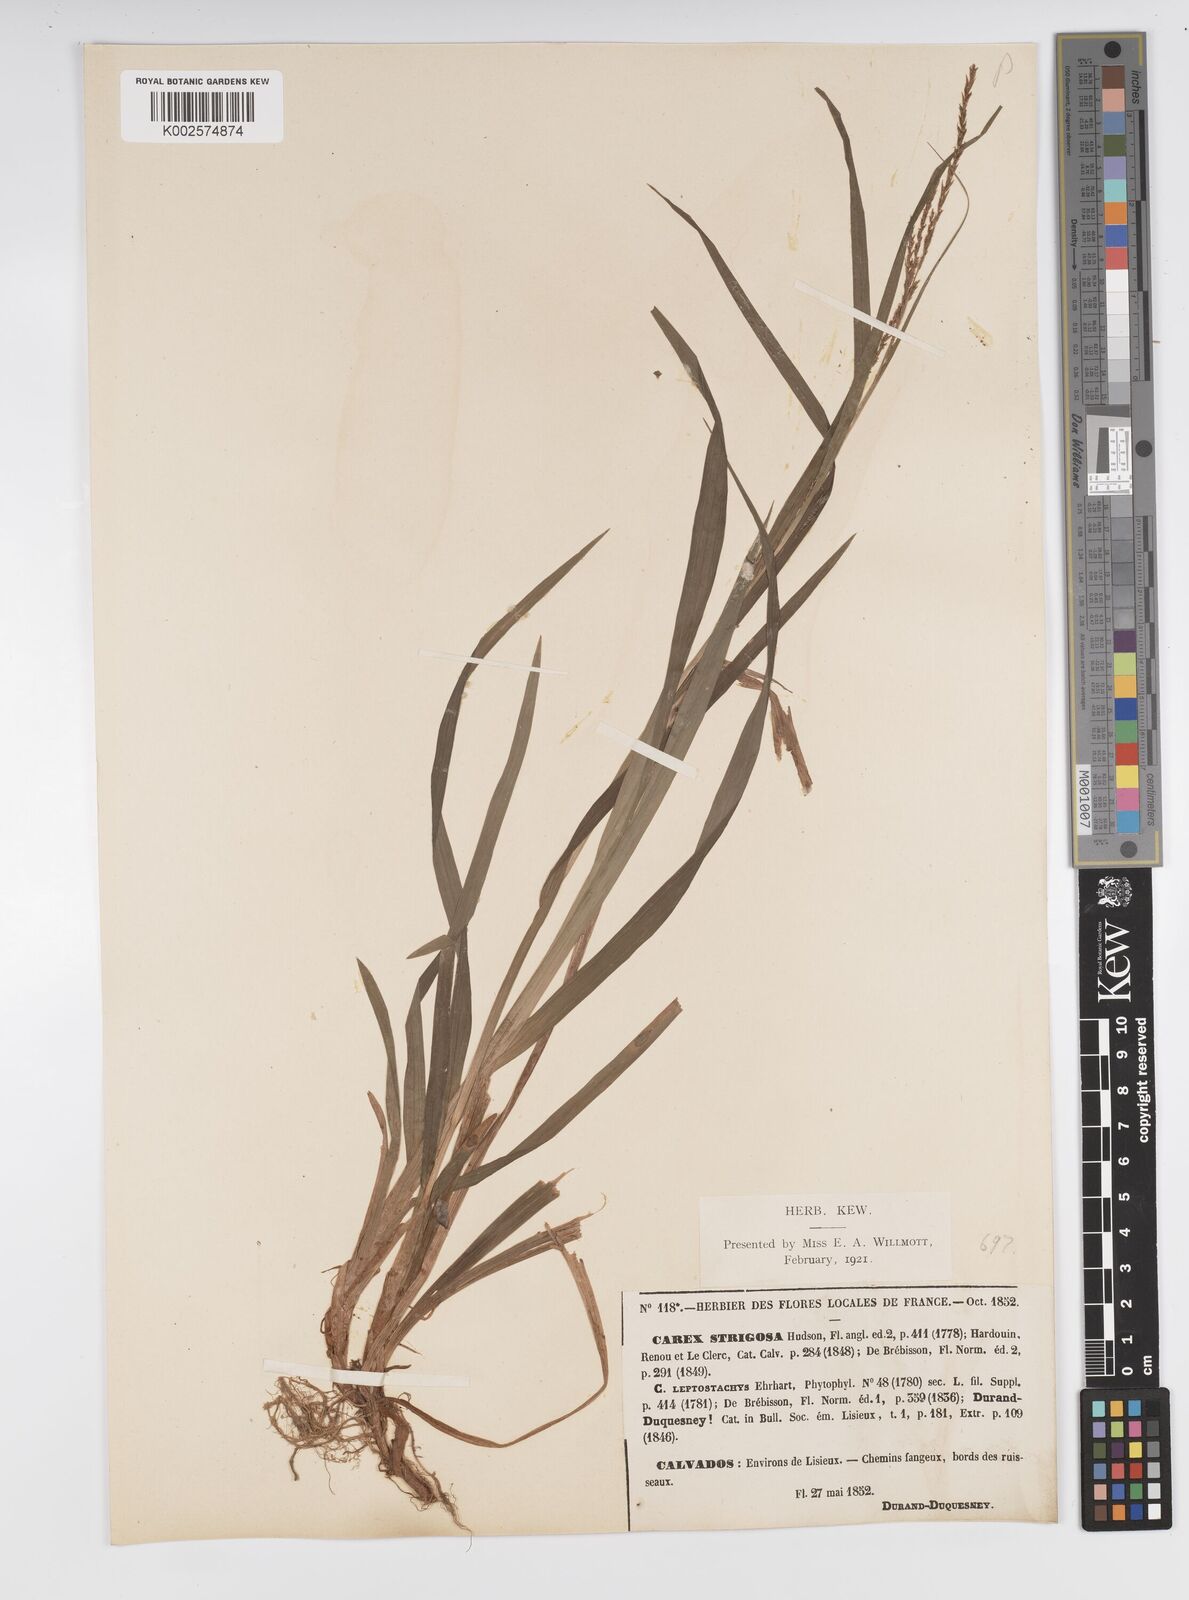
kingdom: Plantae
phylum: Tracheophyta
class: Liliopsida
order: Poales
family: Cyperaceae
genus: Carex
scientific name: Carex strigosa
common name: Thin-spiked wood-sedge
